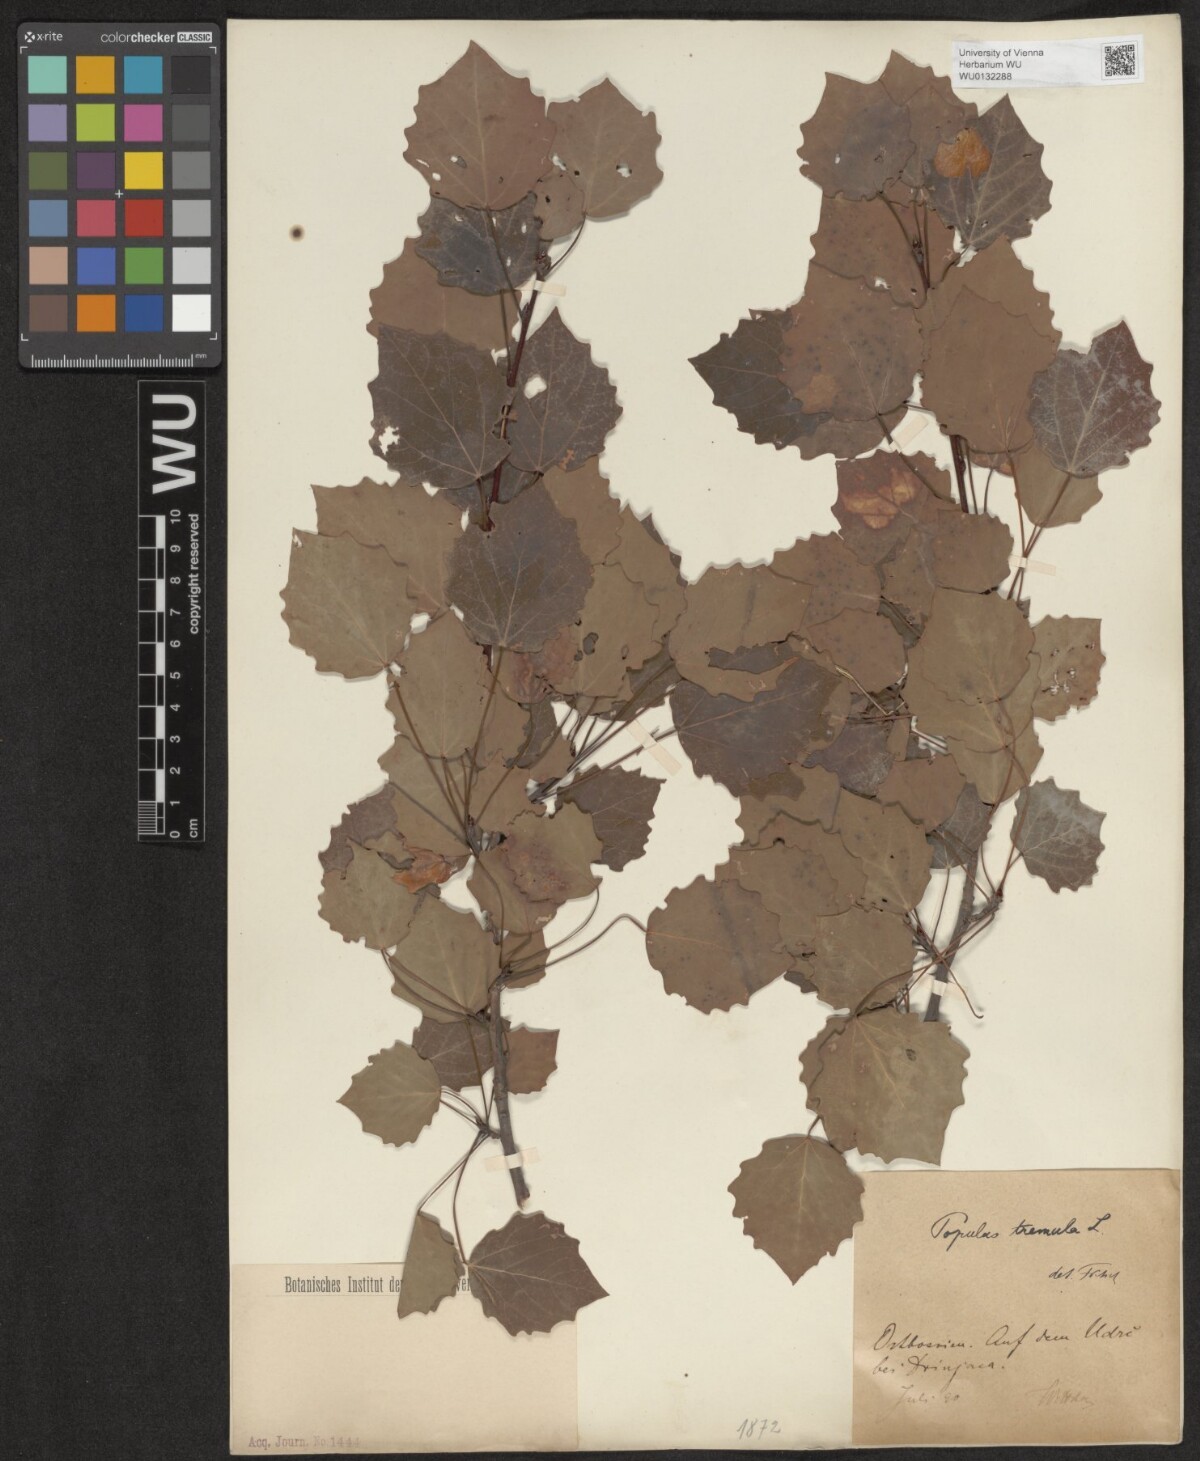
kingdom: Plantae
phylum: Tracheophyta
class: Magnoliopsida
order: Malpighiales
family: Salicaceae
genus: Populus
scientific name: Populus tremula
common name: European aspen
